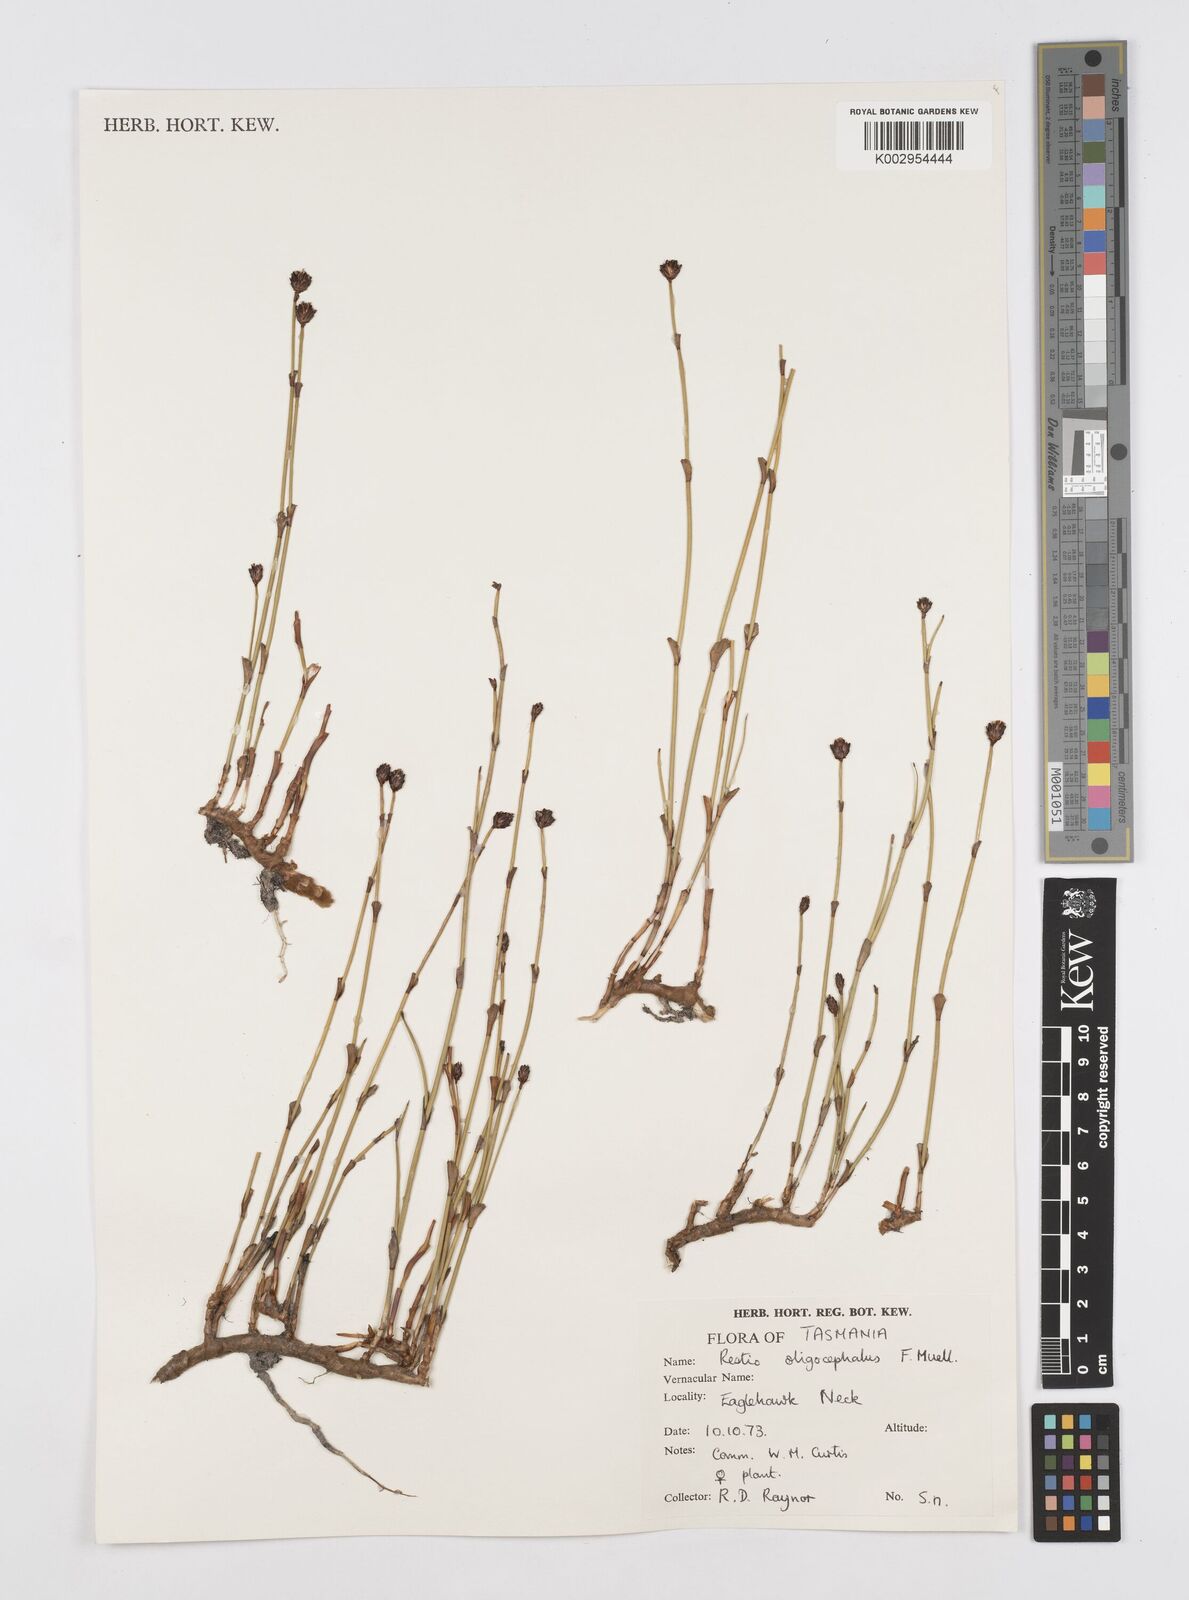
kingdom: Plantae
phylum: Tracheophyta
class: Liliopsida
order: Poales
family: Restionaceae
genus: Chordifex
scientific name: Chordifex hookeri
